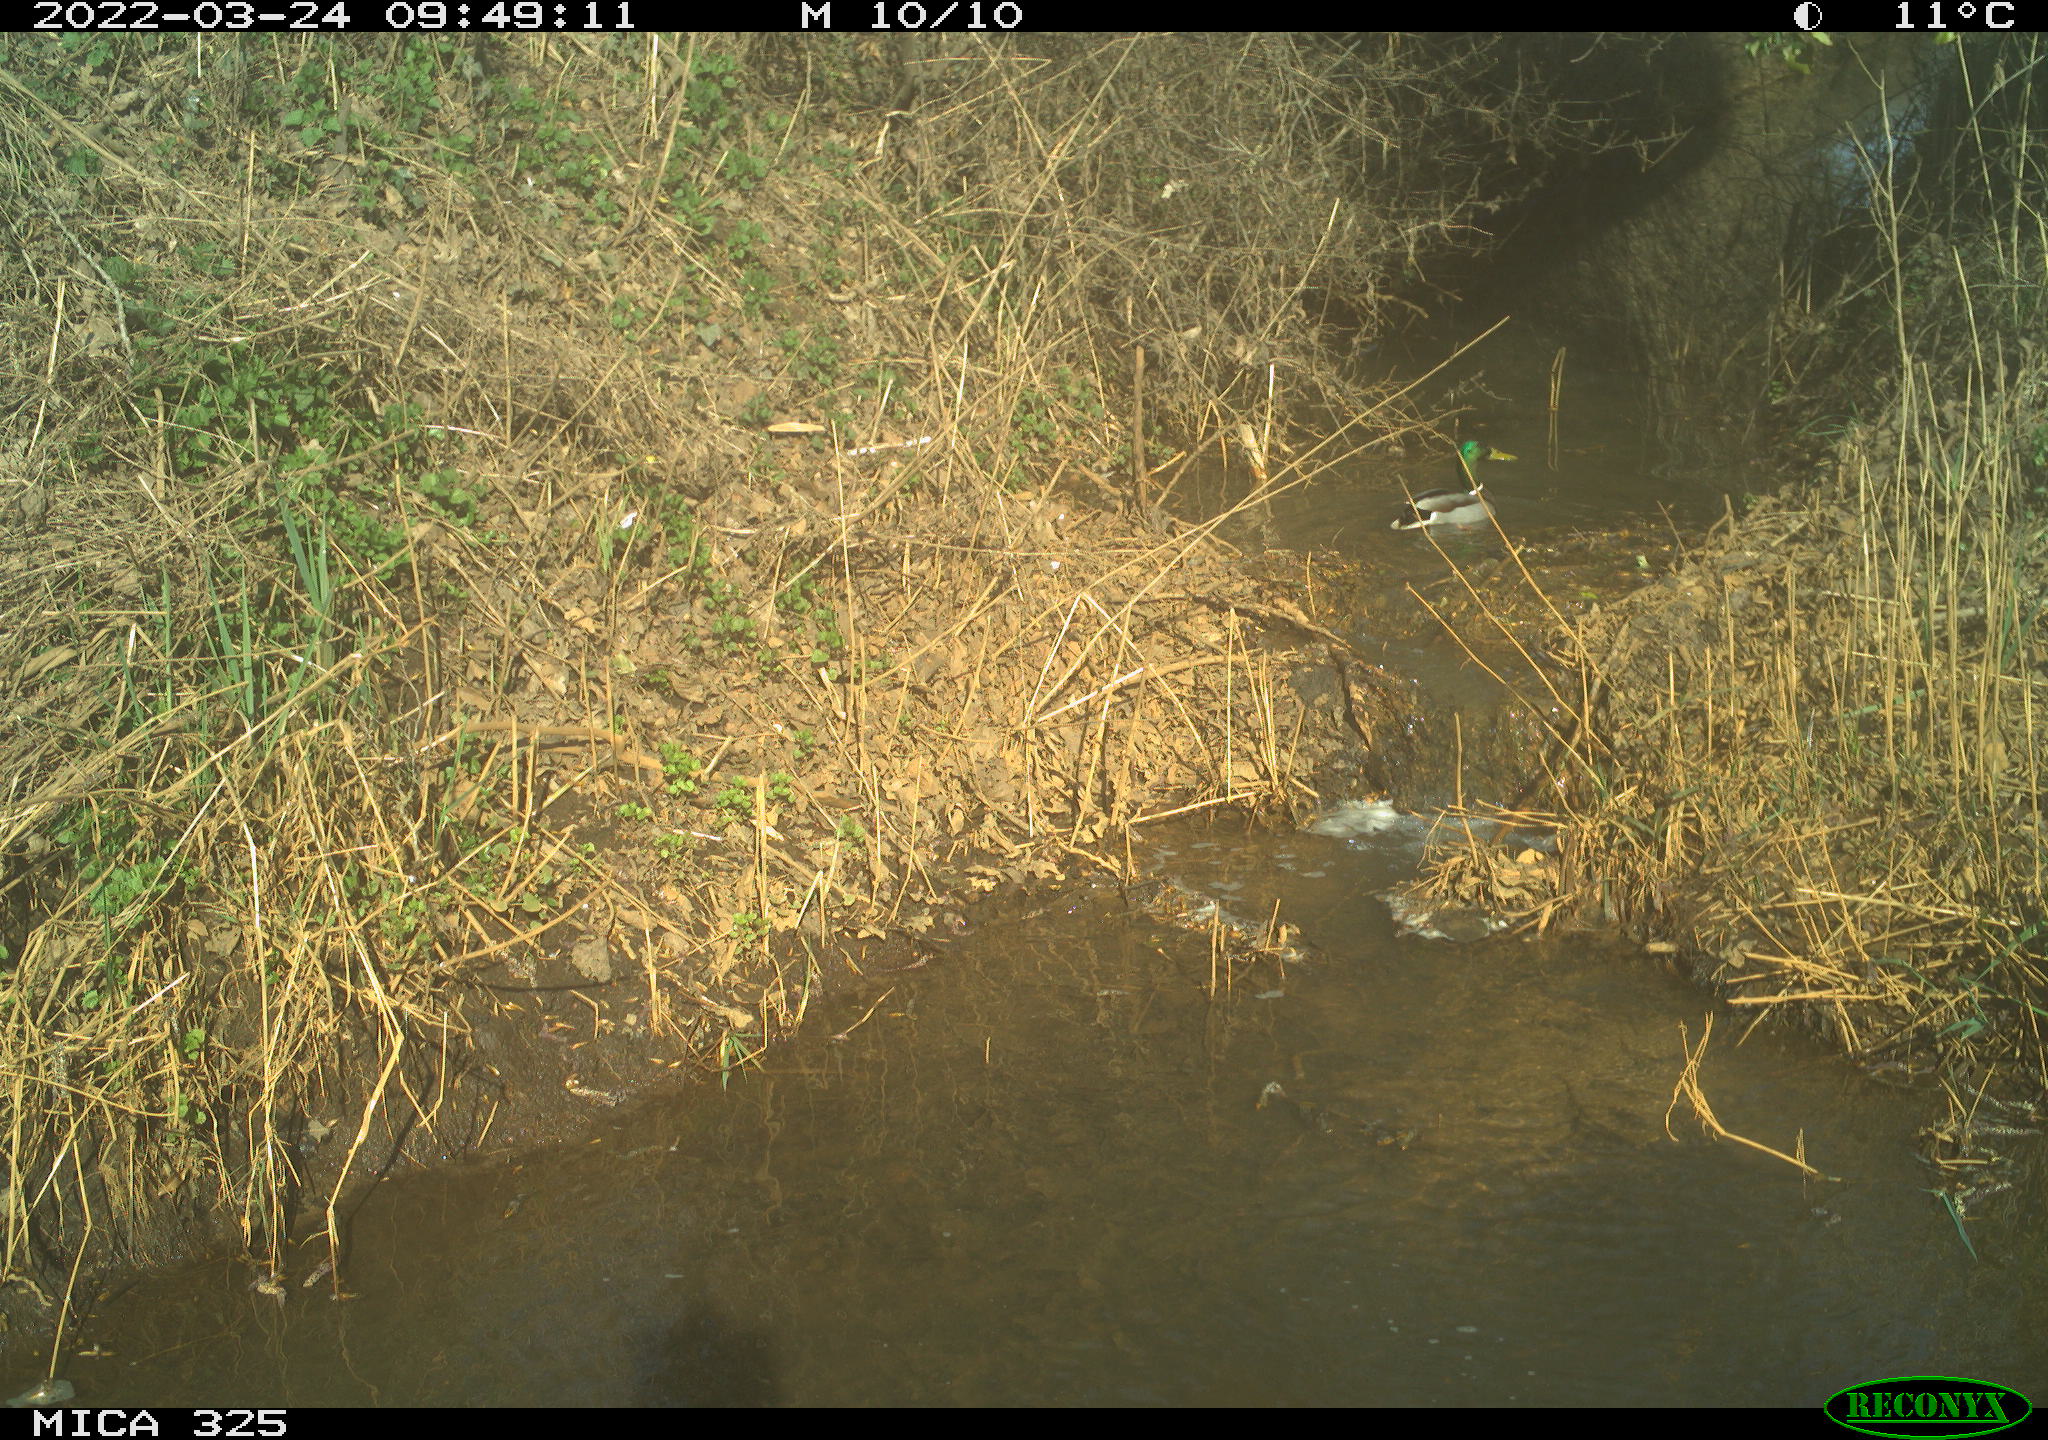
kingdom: Animalia
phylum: Chordata
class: Aves
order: Anseriformes
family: Anatidae
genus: Anas
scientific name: Anas platyrhynchos
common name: Mallard
